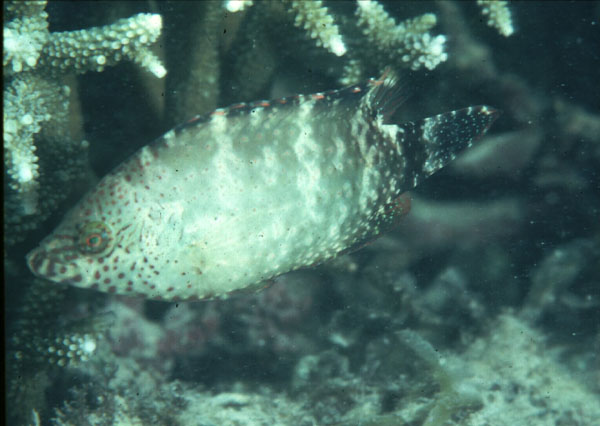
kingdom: Animalia
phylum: Chordata
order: Perciformes
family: Labridae
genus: Cheilinus
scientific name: Cheilinus chlorourus
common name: Floral wrasse
